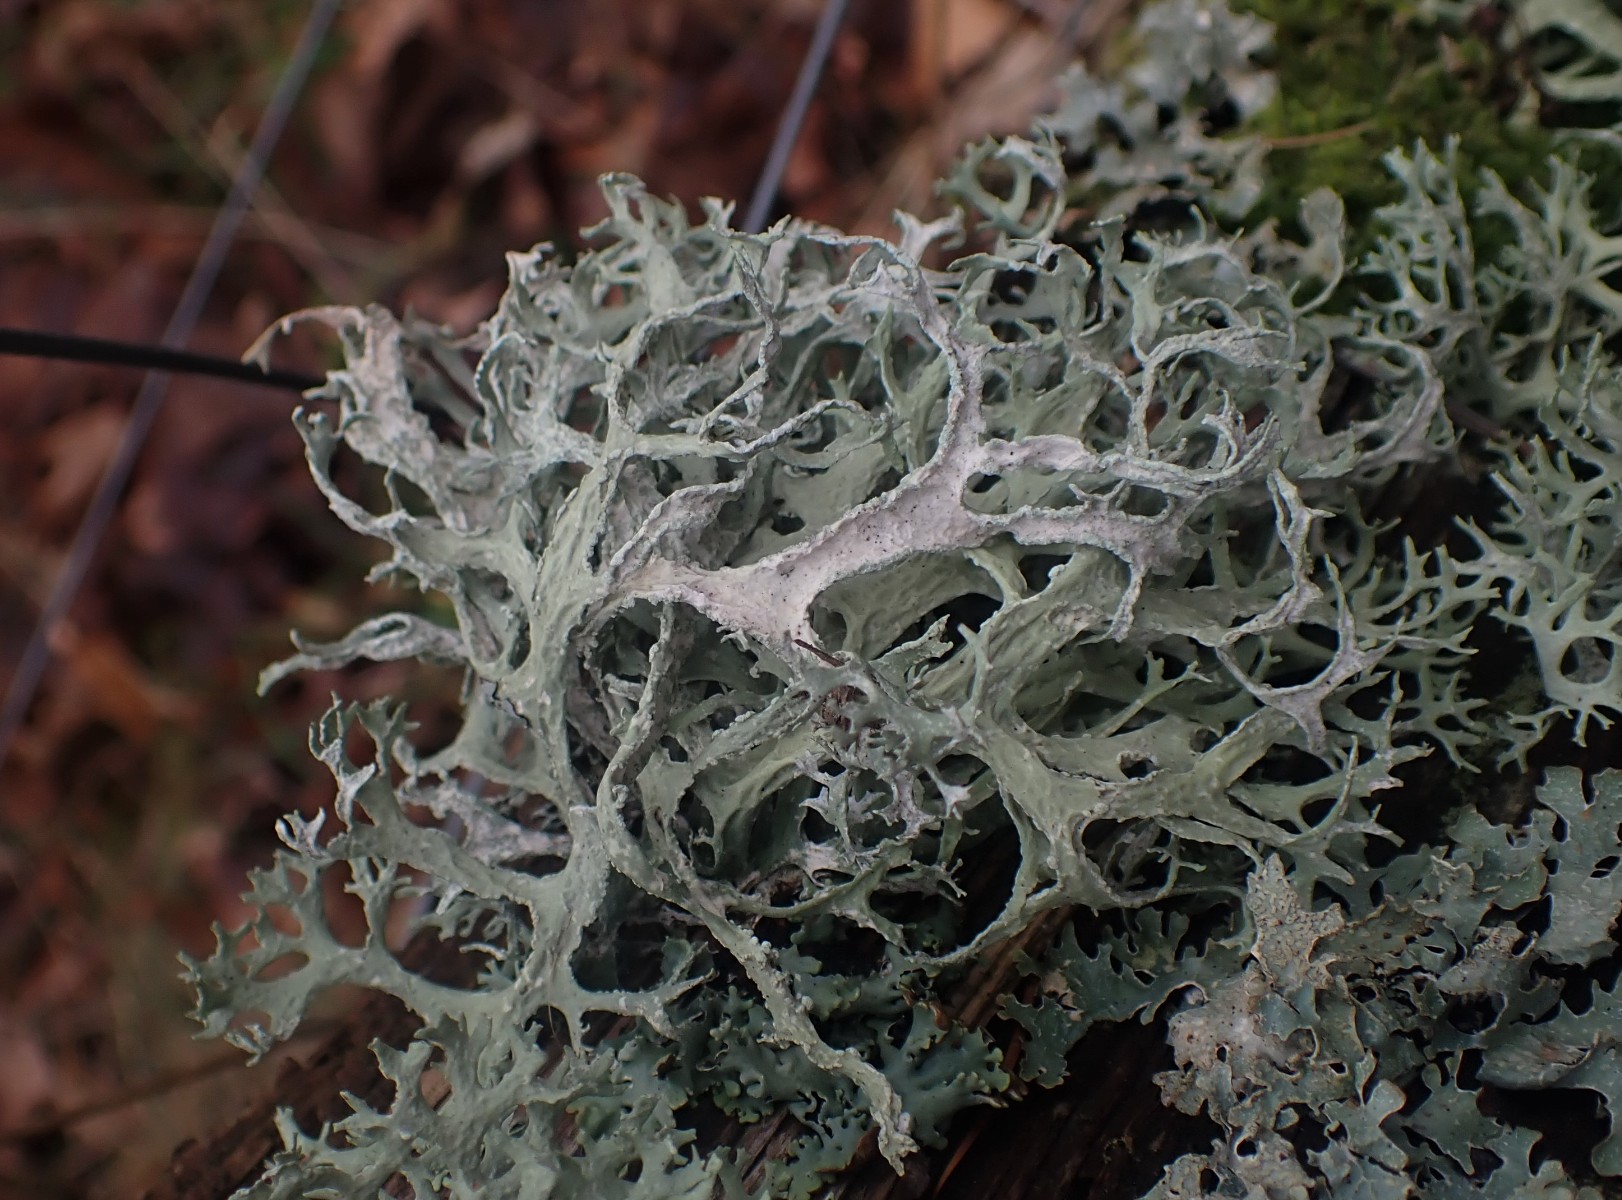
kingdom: Fungi
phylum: Ascomycota
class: Lecanoromycetes
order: Lecanorales
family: Parmeliaceae
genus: Evernia
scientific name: Evernia prunastri
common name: almindelig slåenlav
